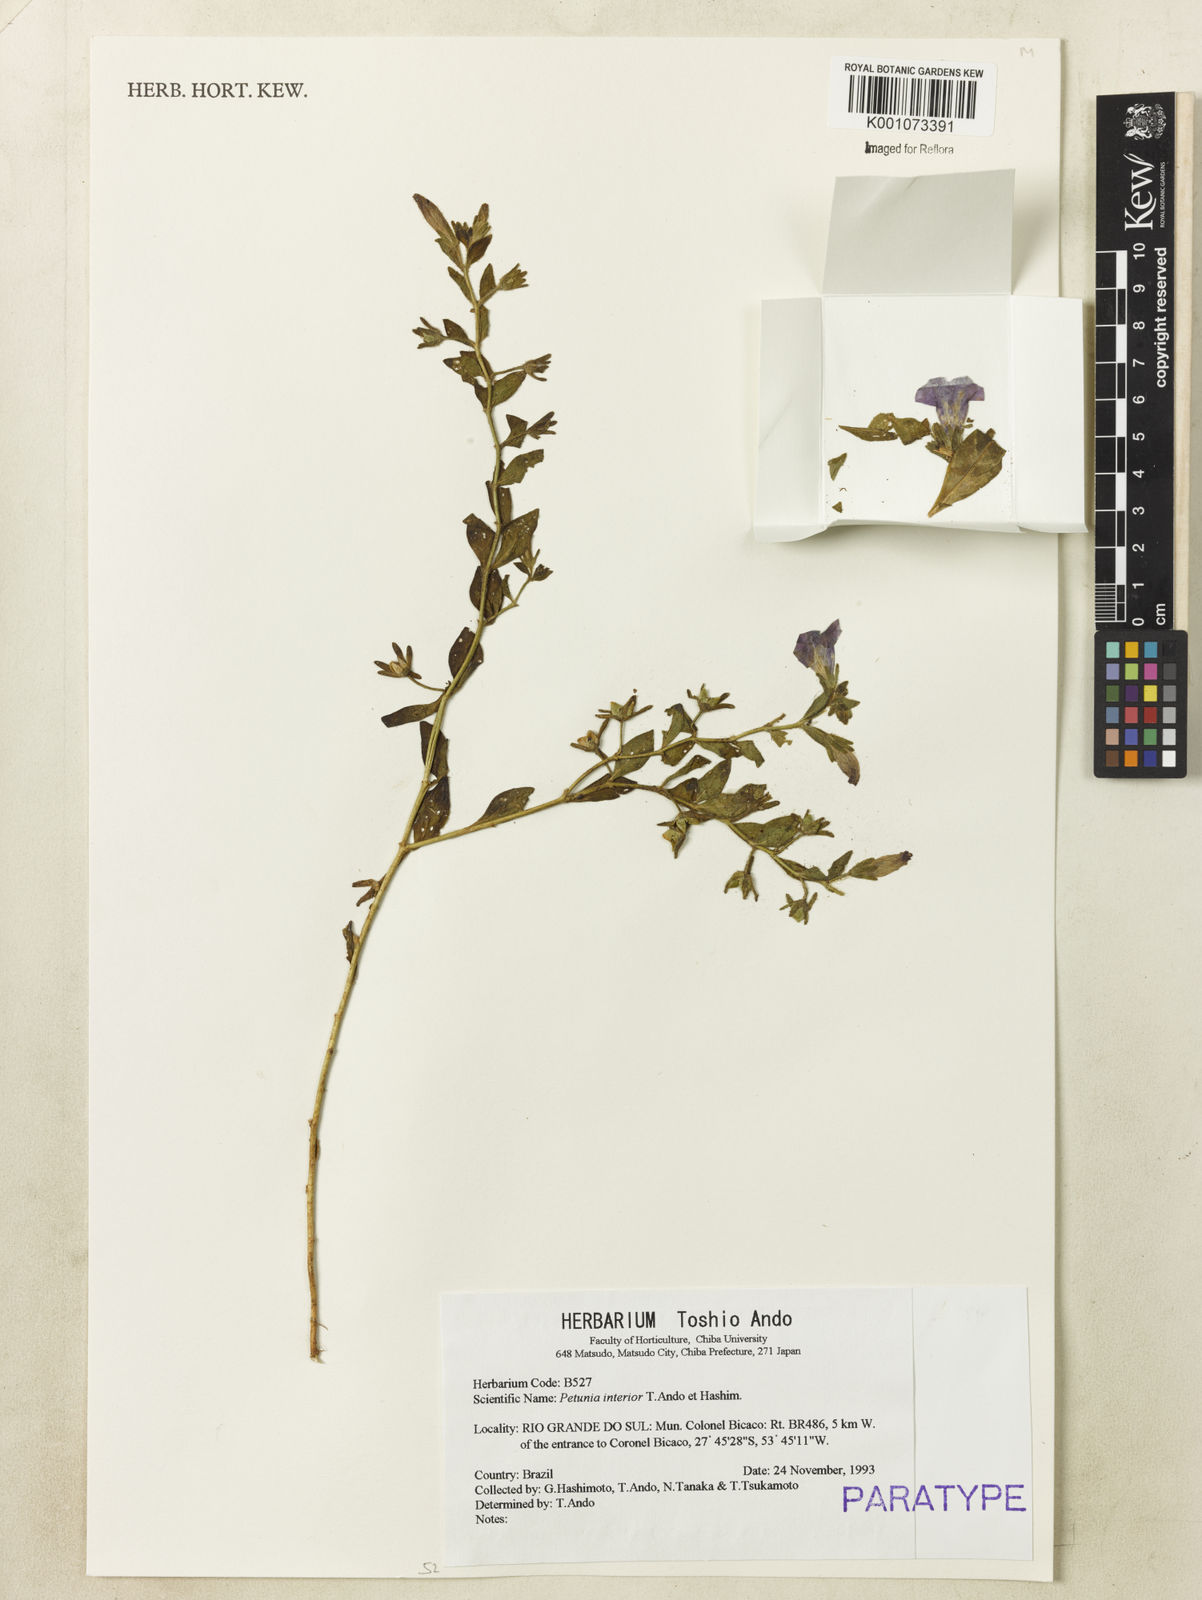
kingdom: Plantae
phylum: Tracheophyta
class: Magnoliopsida
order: Solanales
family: Solanaceae
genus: Petunia
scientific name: Petunia interior
